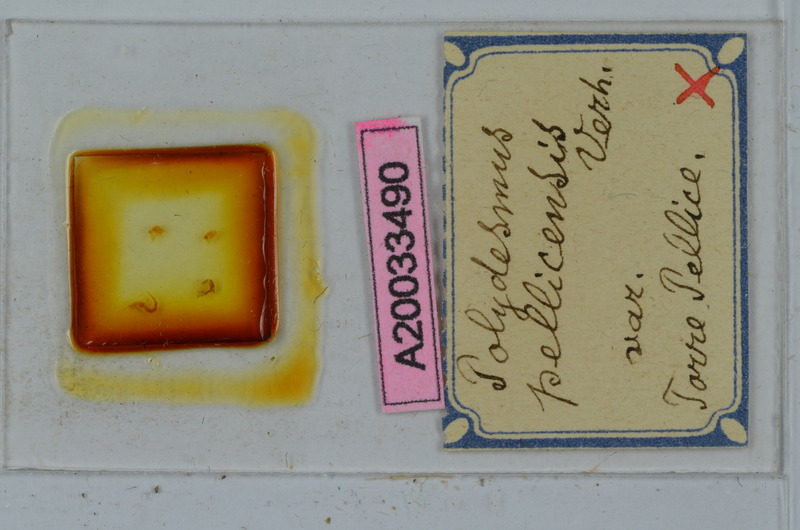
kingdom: Animalia
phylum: Arthropoda
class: Diplopoda
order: Polydesmida
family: Polydesmidae
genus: Polydesmus
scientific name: Polydesmus brevimanus
